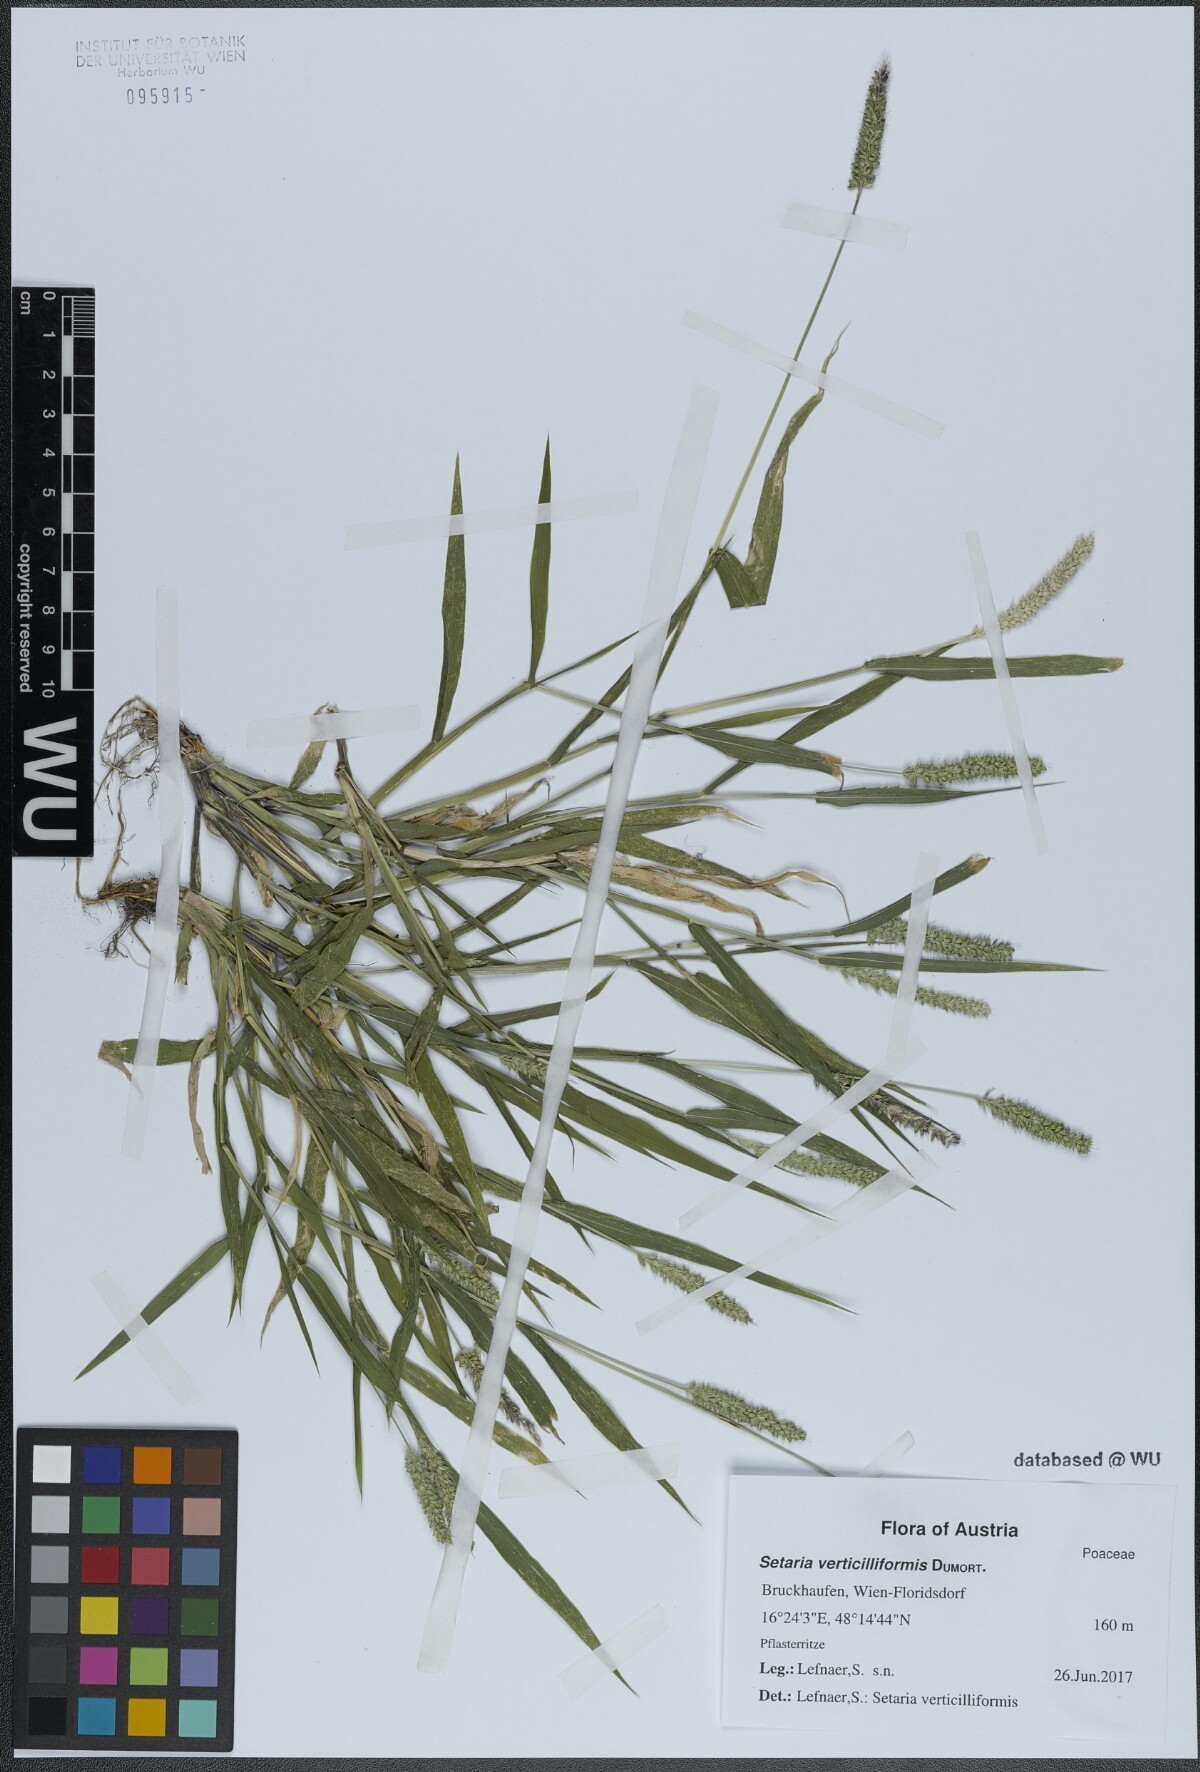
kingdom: Plantae
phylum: Tracheophyta
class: Liliopsida
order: Poales
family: Poaceae
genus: Setaria
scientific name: Setaria verticillata
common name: Hooked bristlegrass
